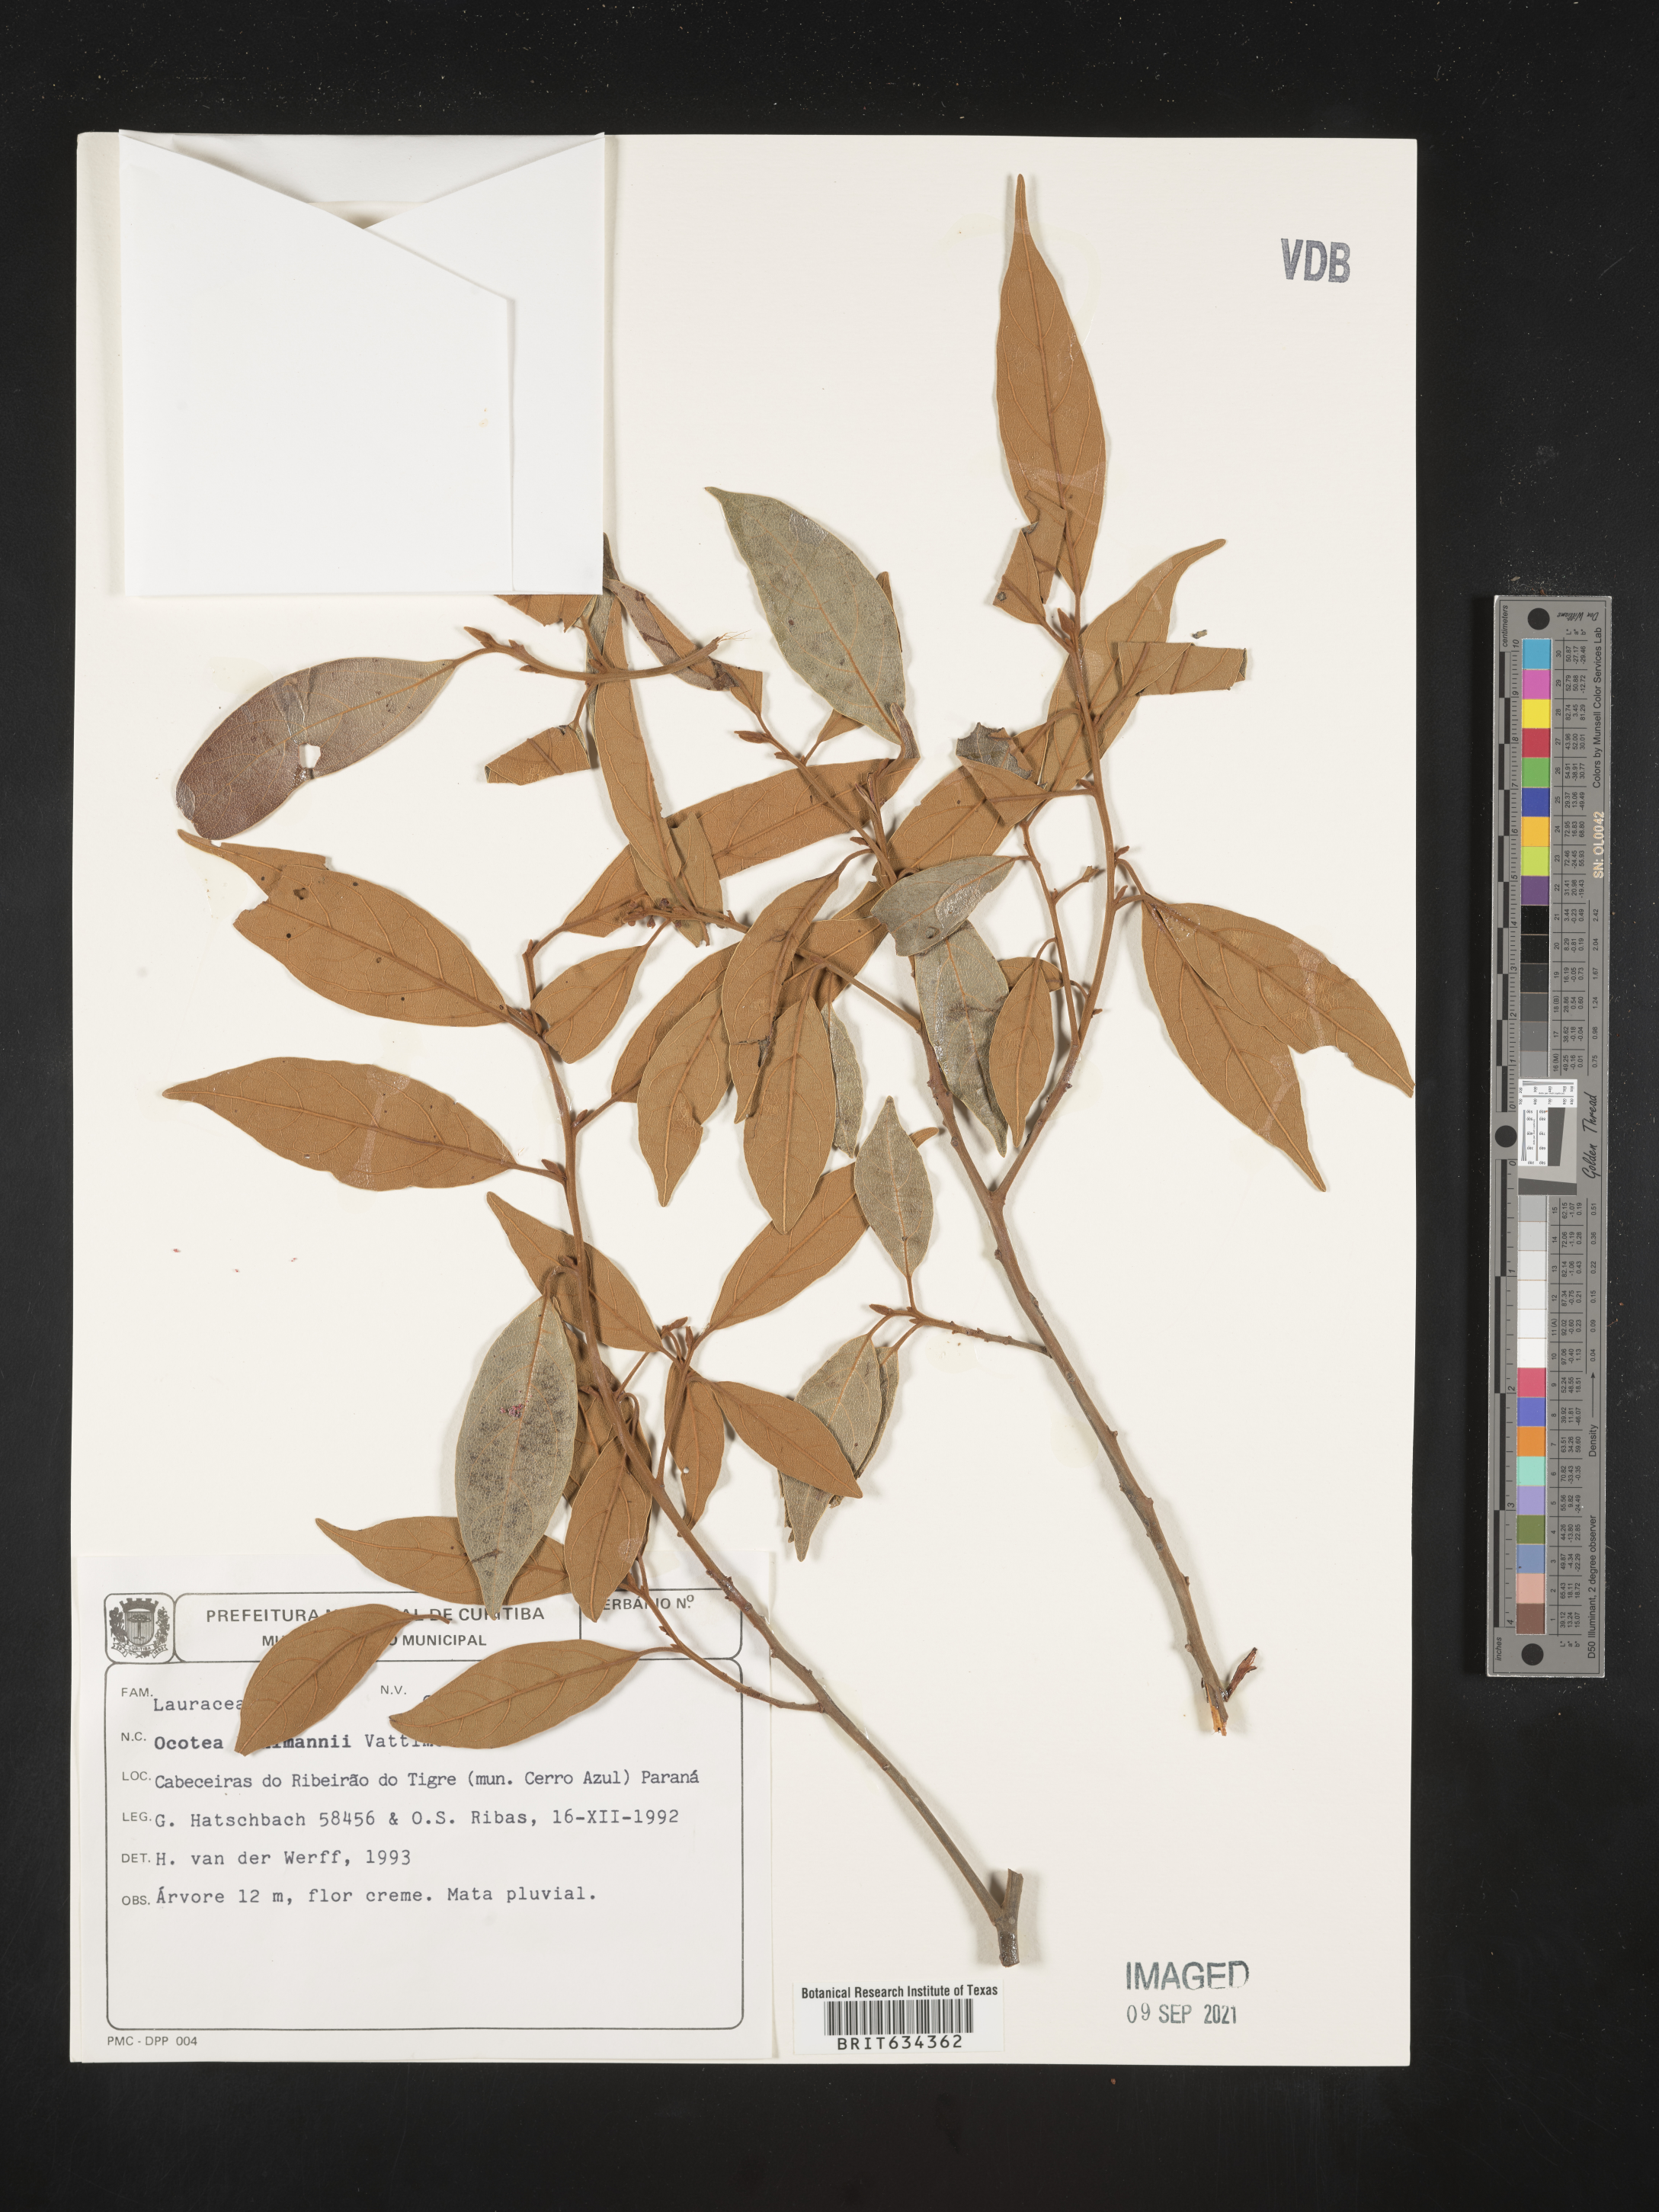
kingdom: Plantae
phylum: Tracheophyta
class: Magnoliopsida
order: Laurales
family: Lauraceae
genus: Ocotea
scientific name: Ocotea
